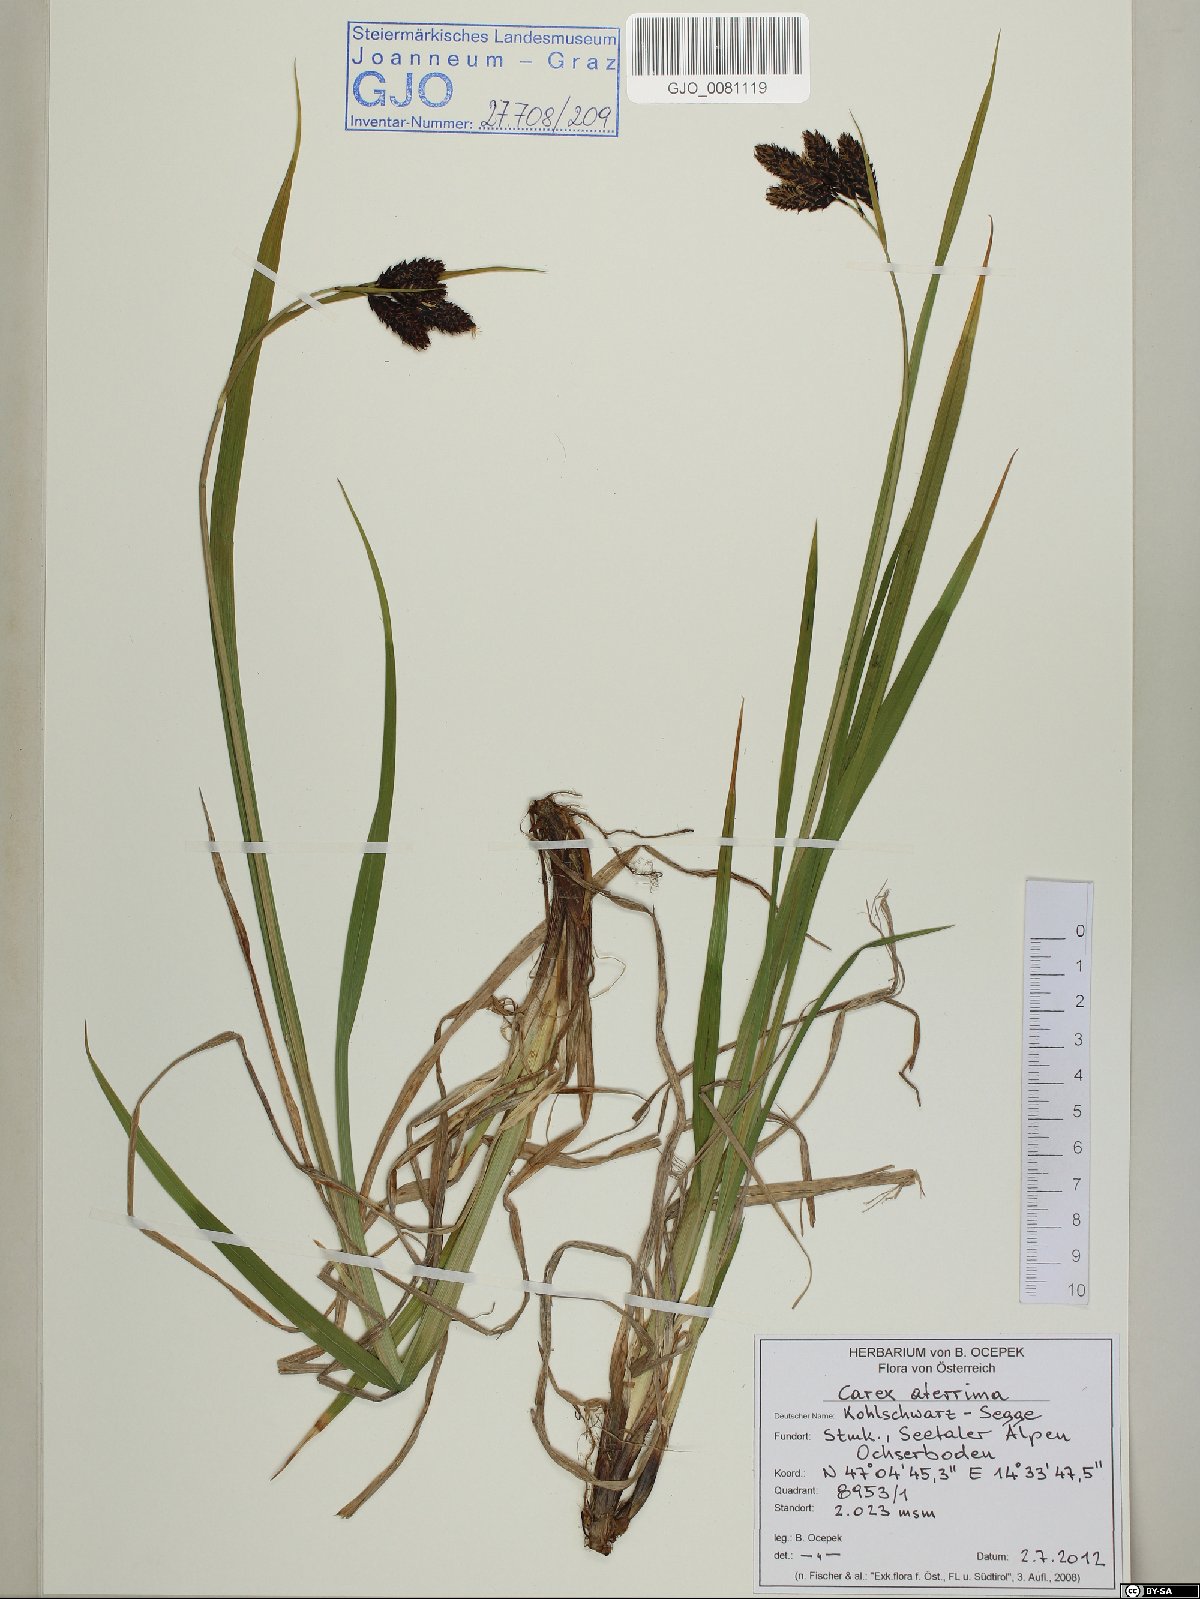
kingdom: Plantae
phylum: Tracheophyta
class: Liliopsida
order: Poales
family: Cyperaceae
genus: Carex
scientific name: Carex aterrima
